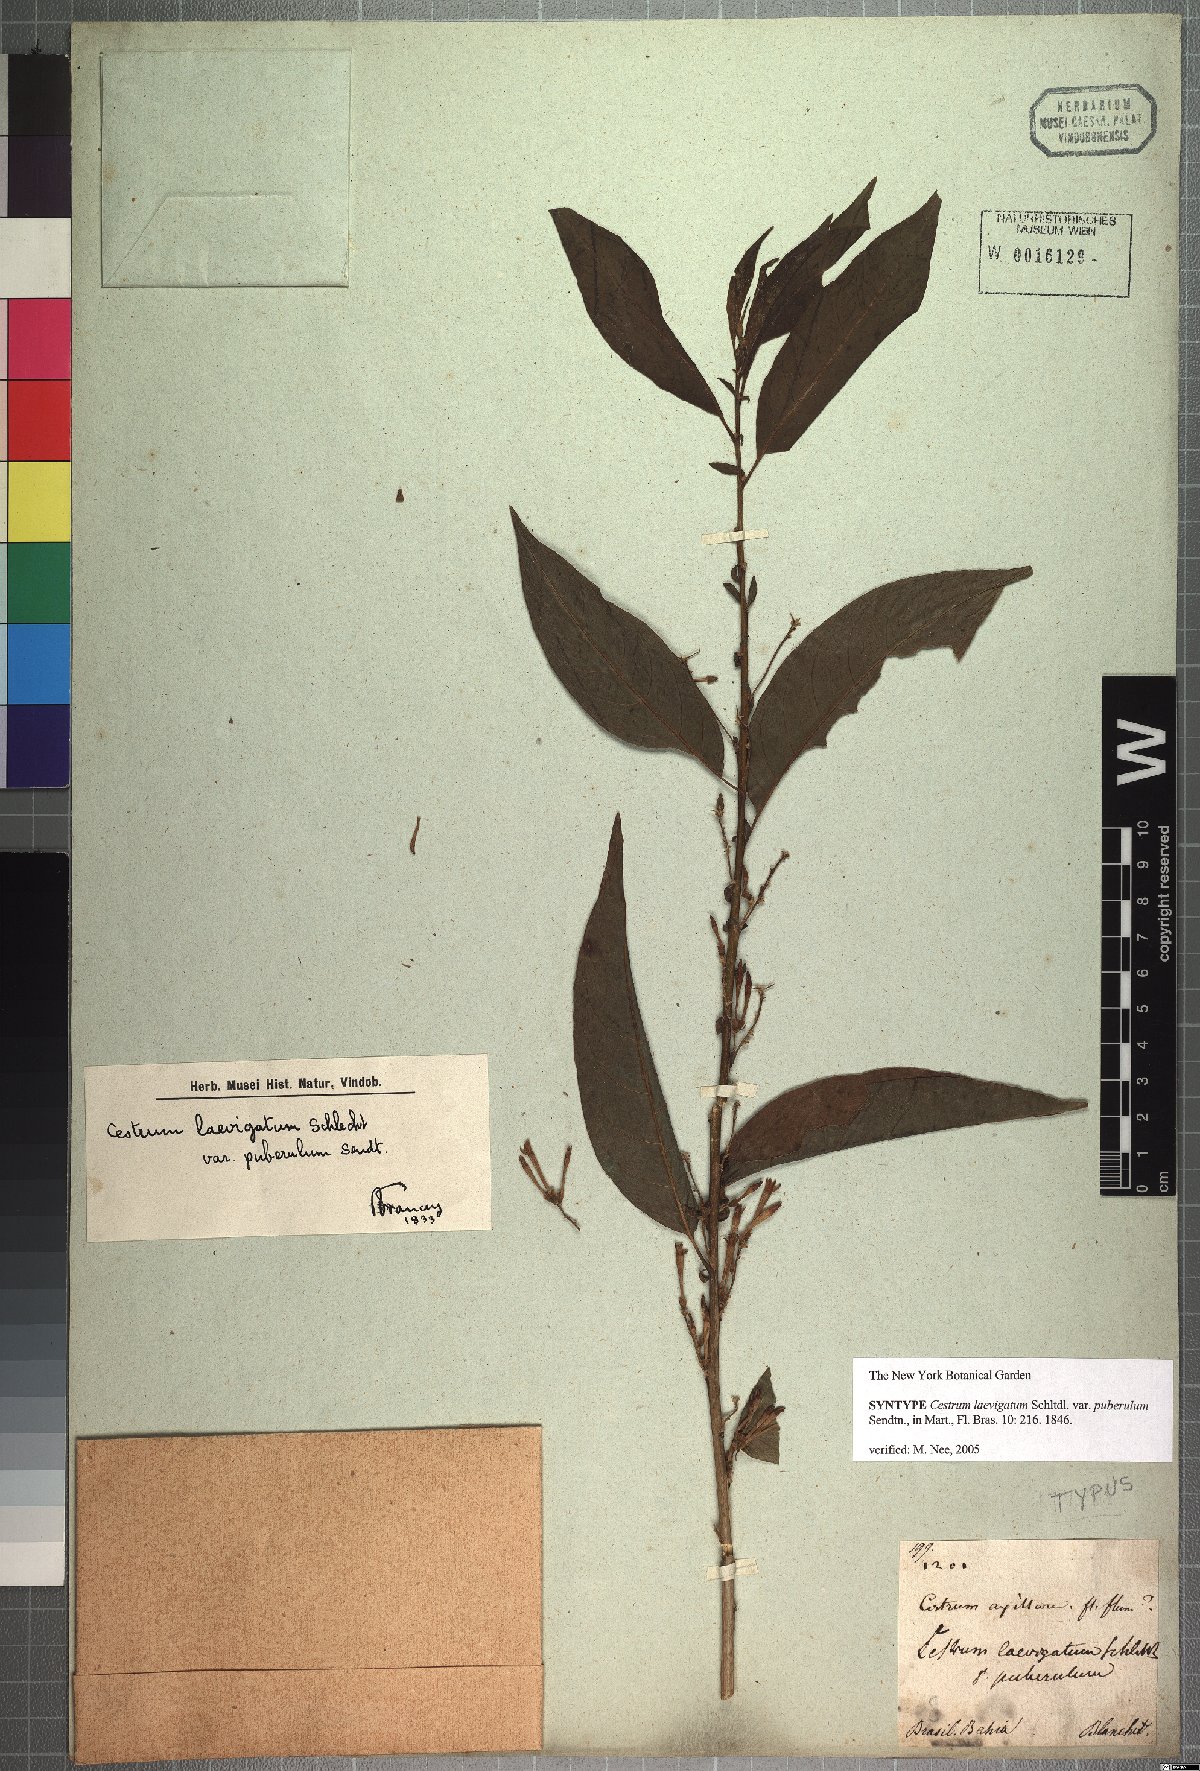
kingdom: Plantae
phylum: Tracheophyta
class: Magnoliopsida
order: Solanales
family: Solanaceae
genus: Cestrum
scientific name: Cestrum laevigatum
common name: Inkberry
